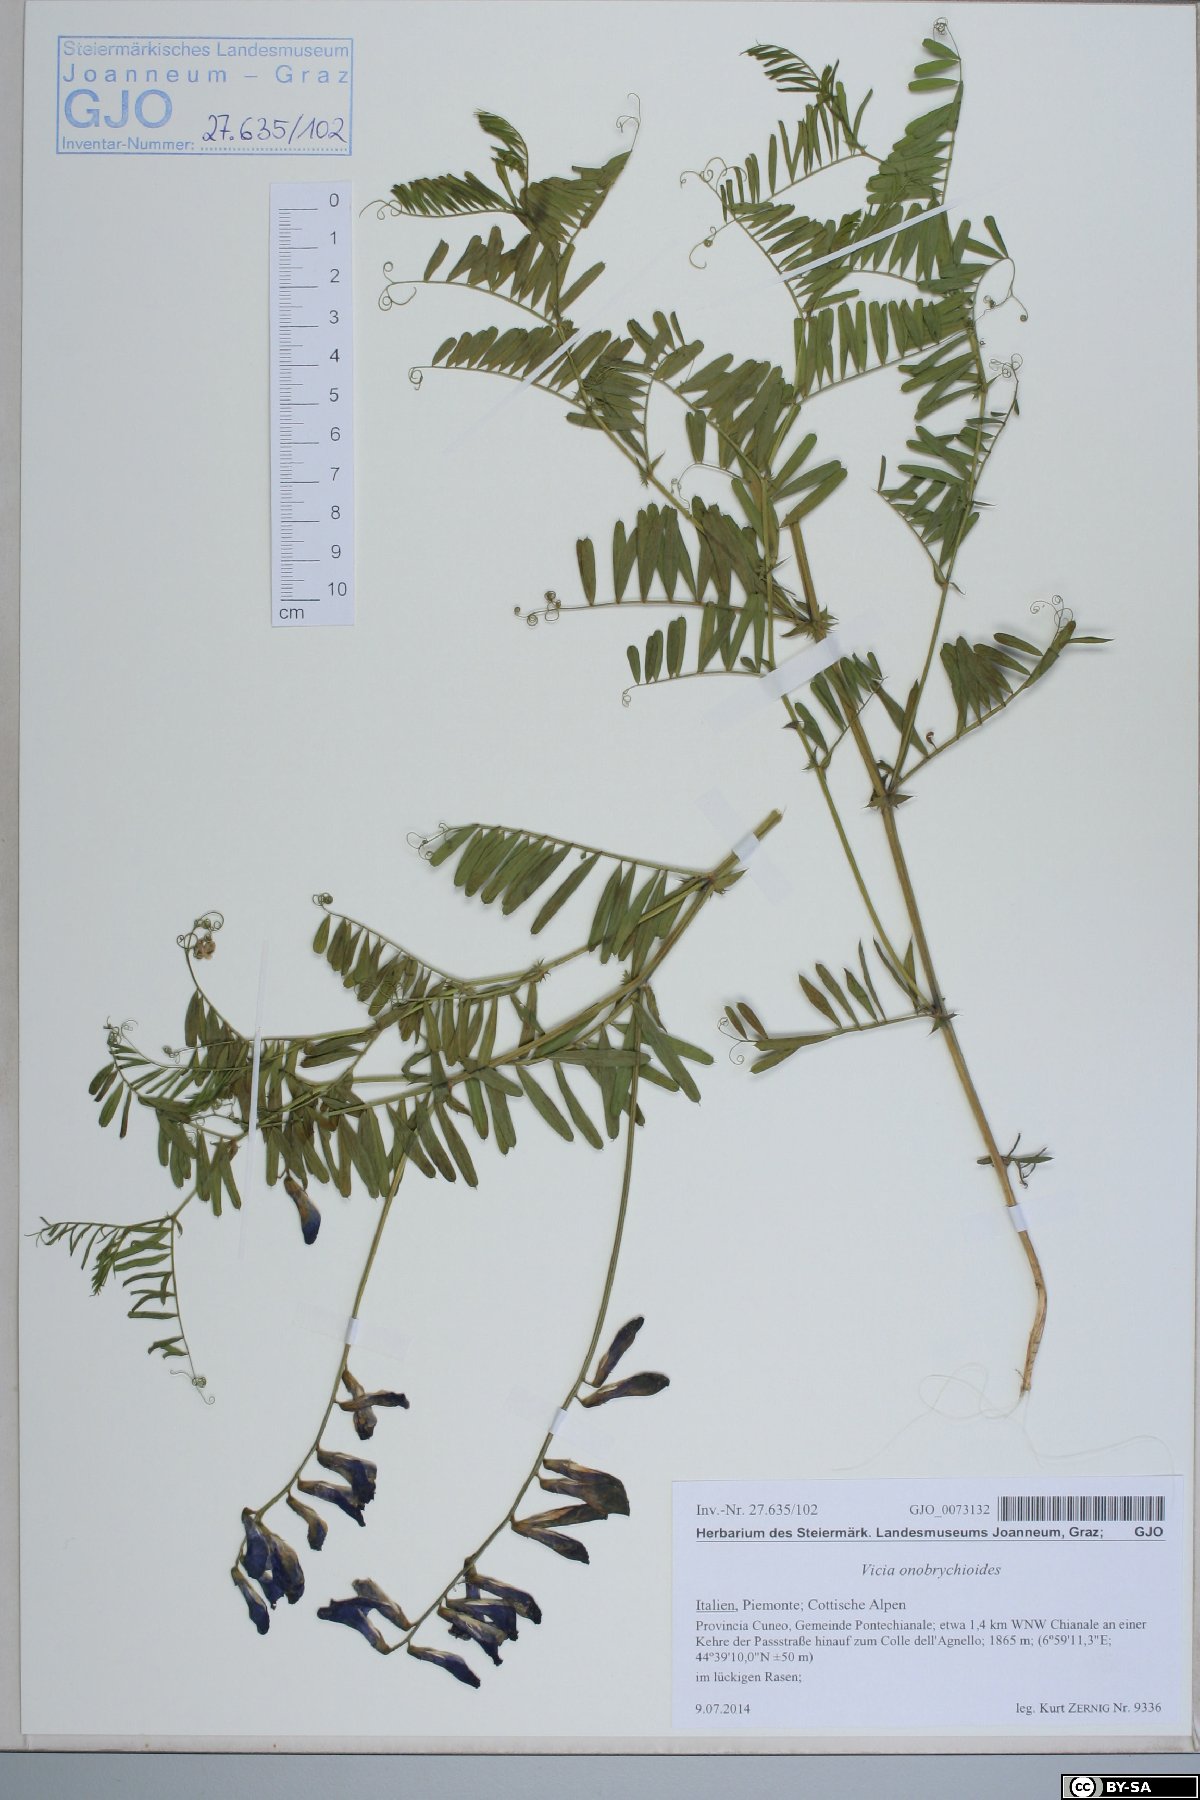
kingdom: Plantae
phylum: Tracheophyta
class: Magnoliopsida
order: Fabales
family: Fabaceae
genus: Vicia
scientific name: Vicia onobrychioides
